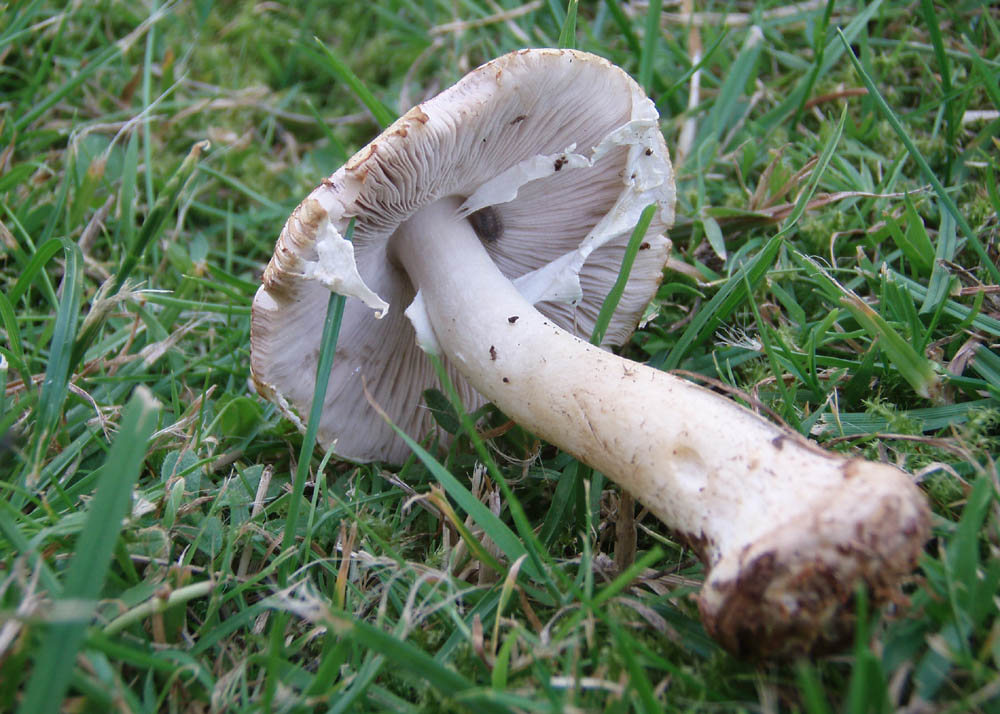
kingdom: Fungi
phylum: Basidiomycota
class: Agaricomycetes
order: Agaricales
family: Agaricaceae
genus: Agaricus
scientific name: Agaricus sylvicola
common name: skiveknoldet champignon
